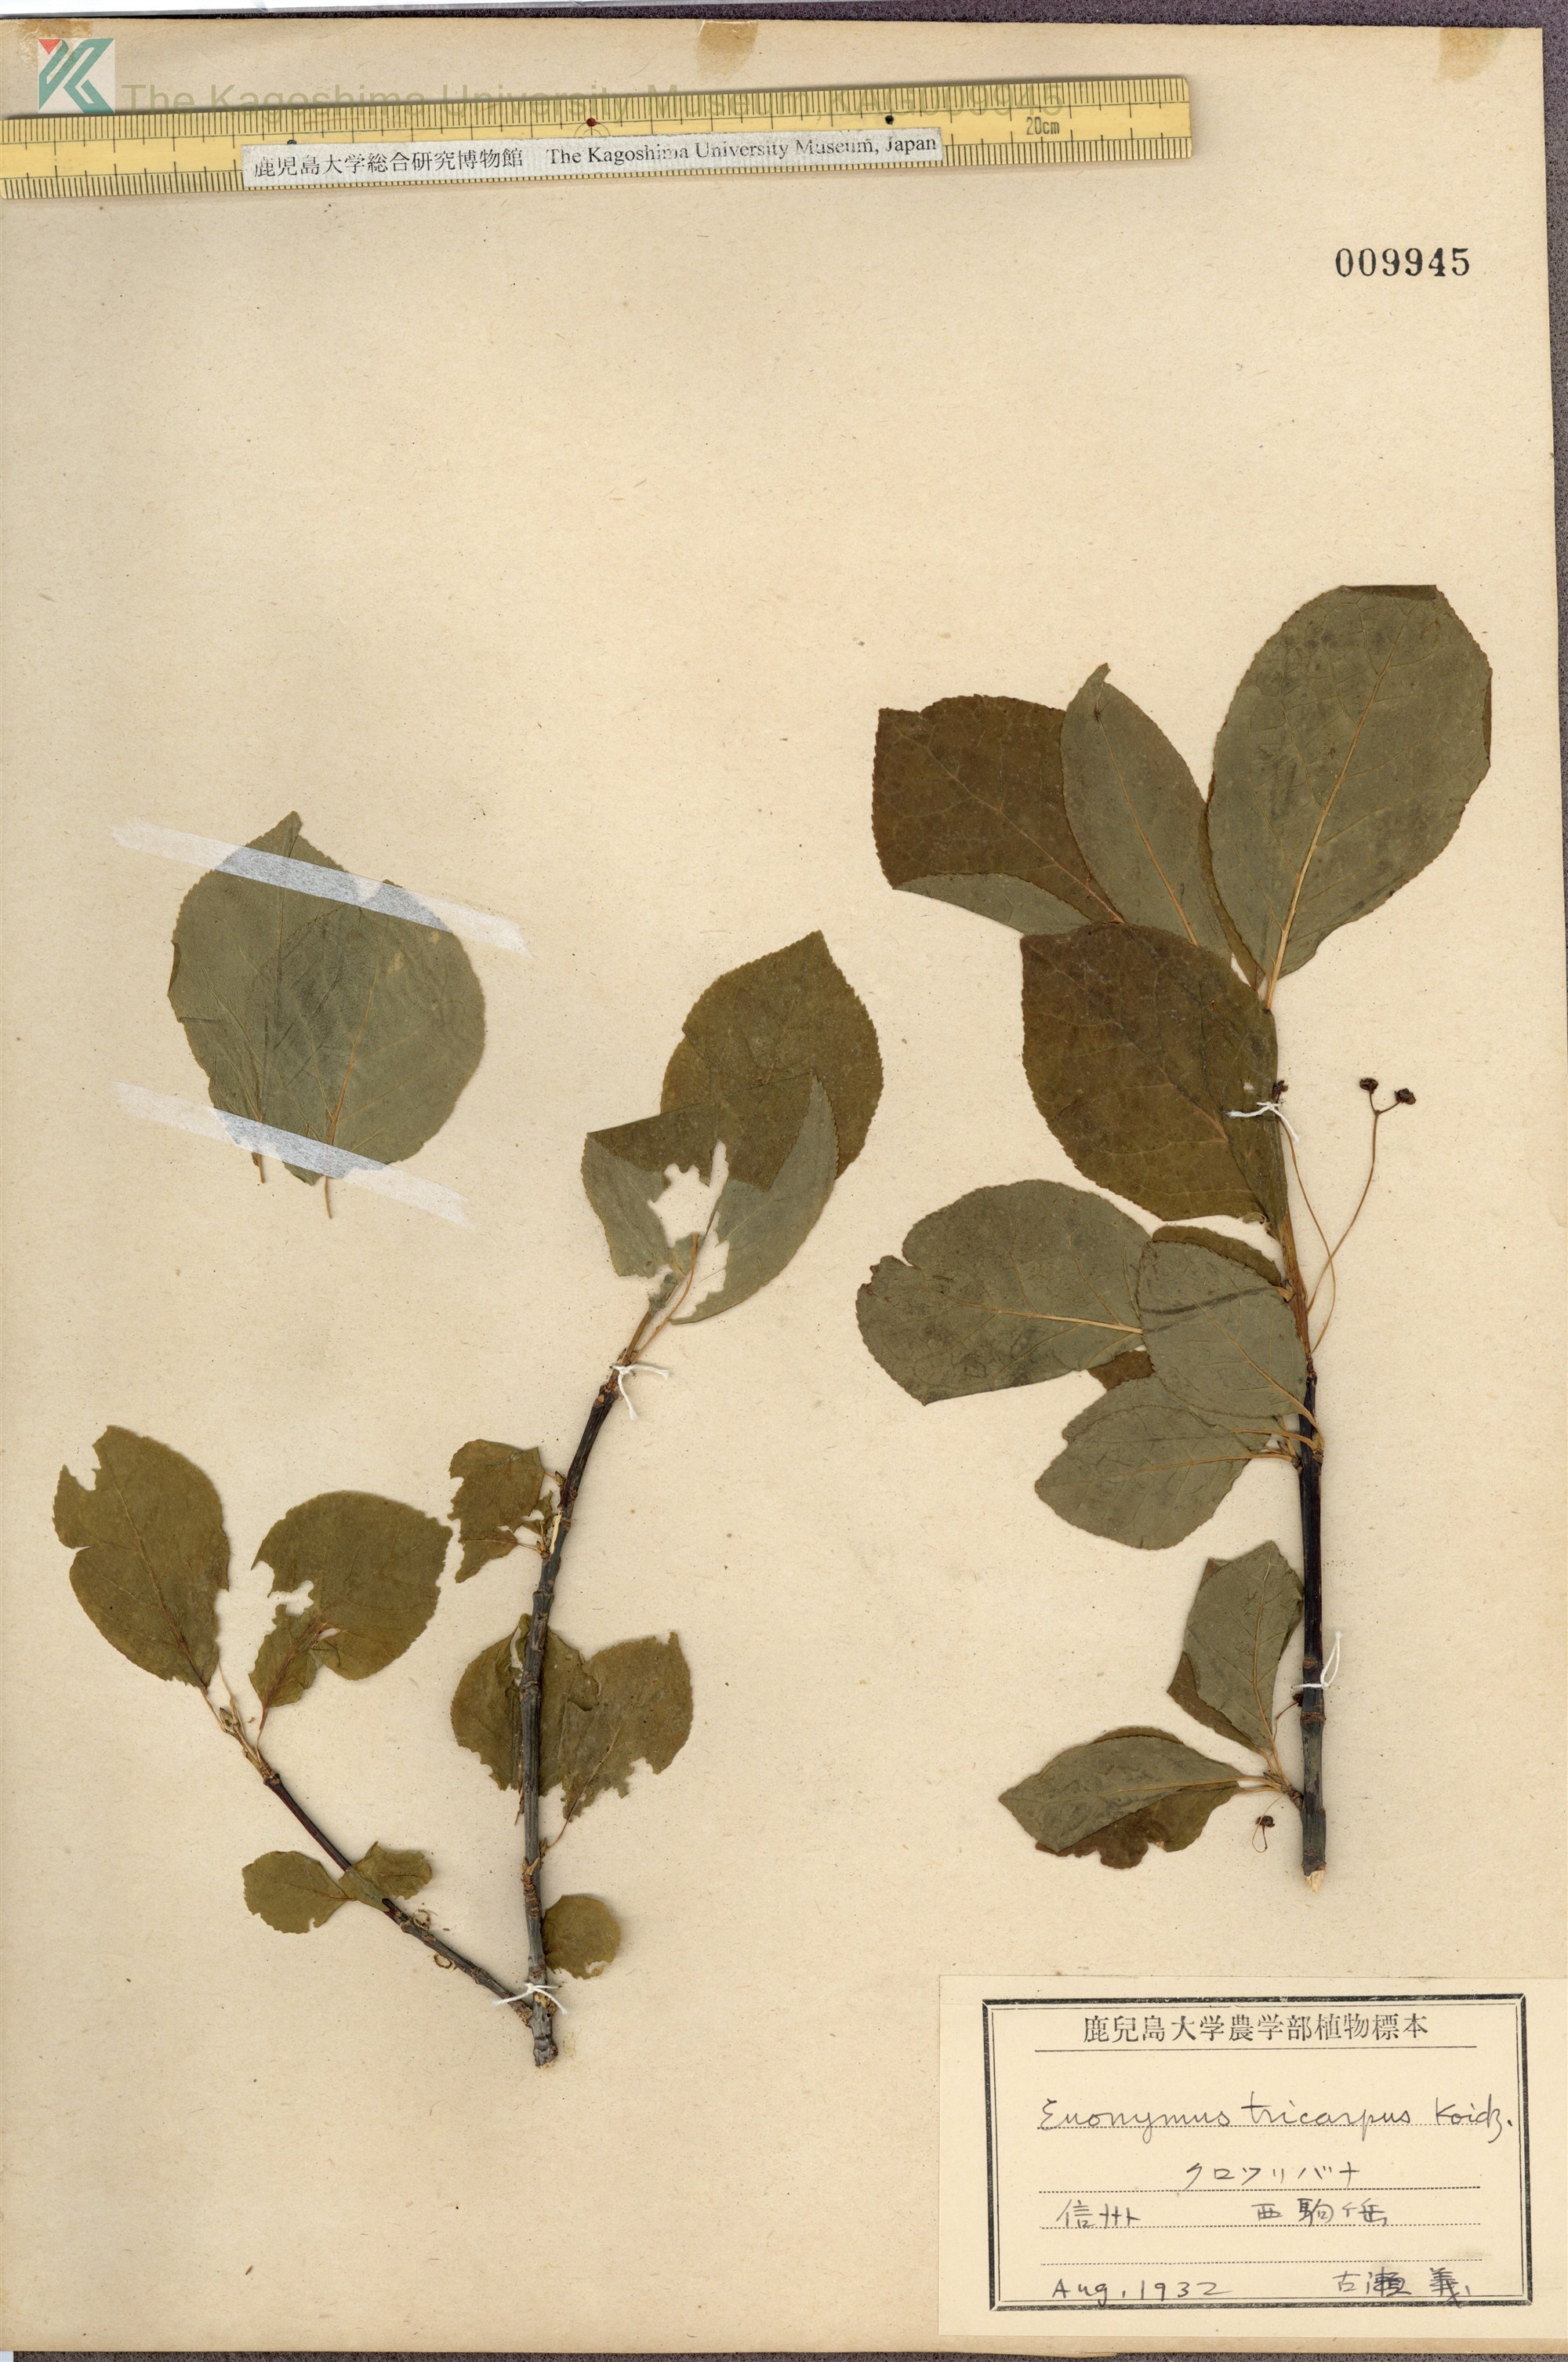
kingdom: Plantae
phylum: Tracheophyta
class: Magnoliopsida
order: Celastrales
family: Celastraceae
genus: Euonymus
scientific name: Euonymus sachalinensis
